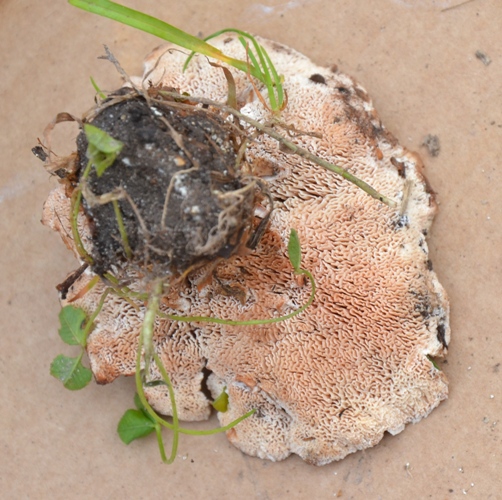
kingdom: Fungi
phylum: Basidiomycota
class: Agaricomycetes
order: Polyporales
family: Podoscyphaceae
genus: Abortiporus
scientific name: Abortiporus biennis
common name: rødmende pjalteporesvamp
